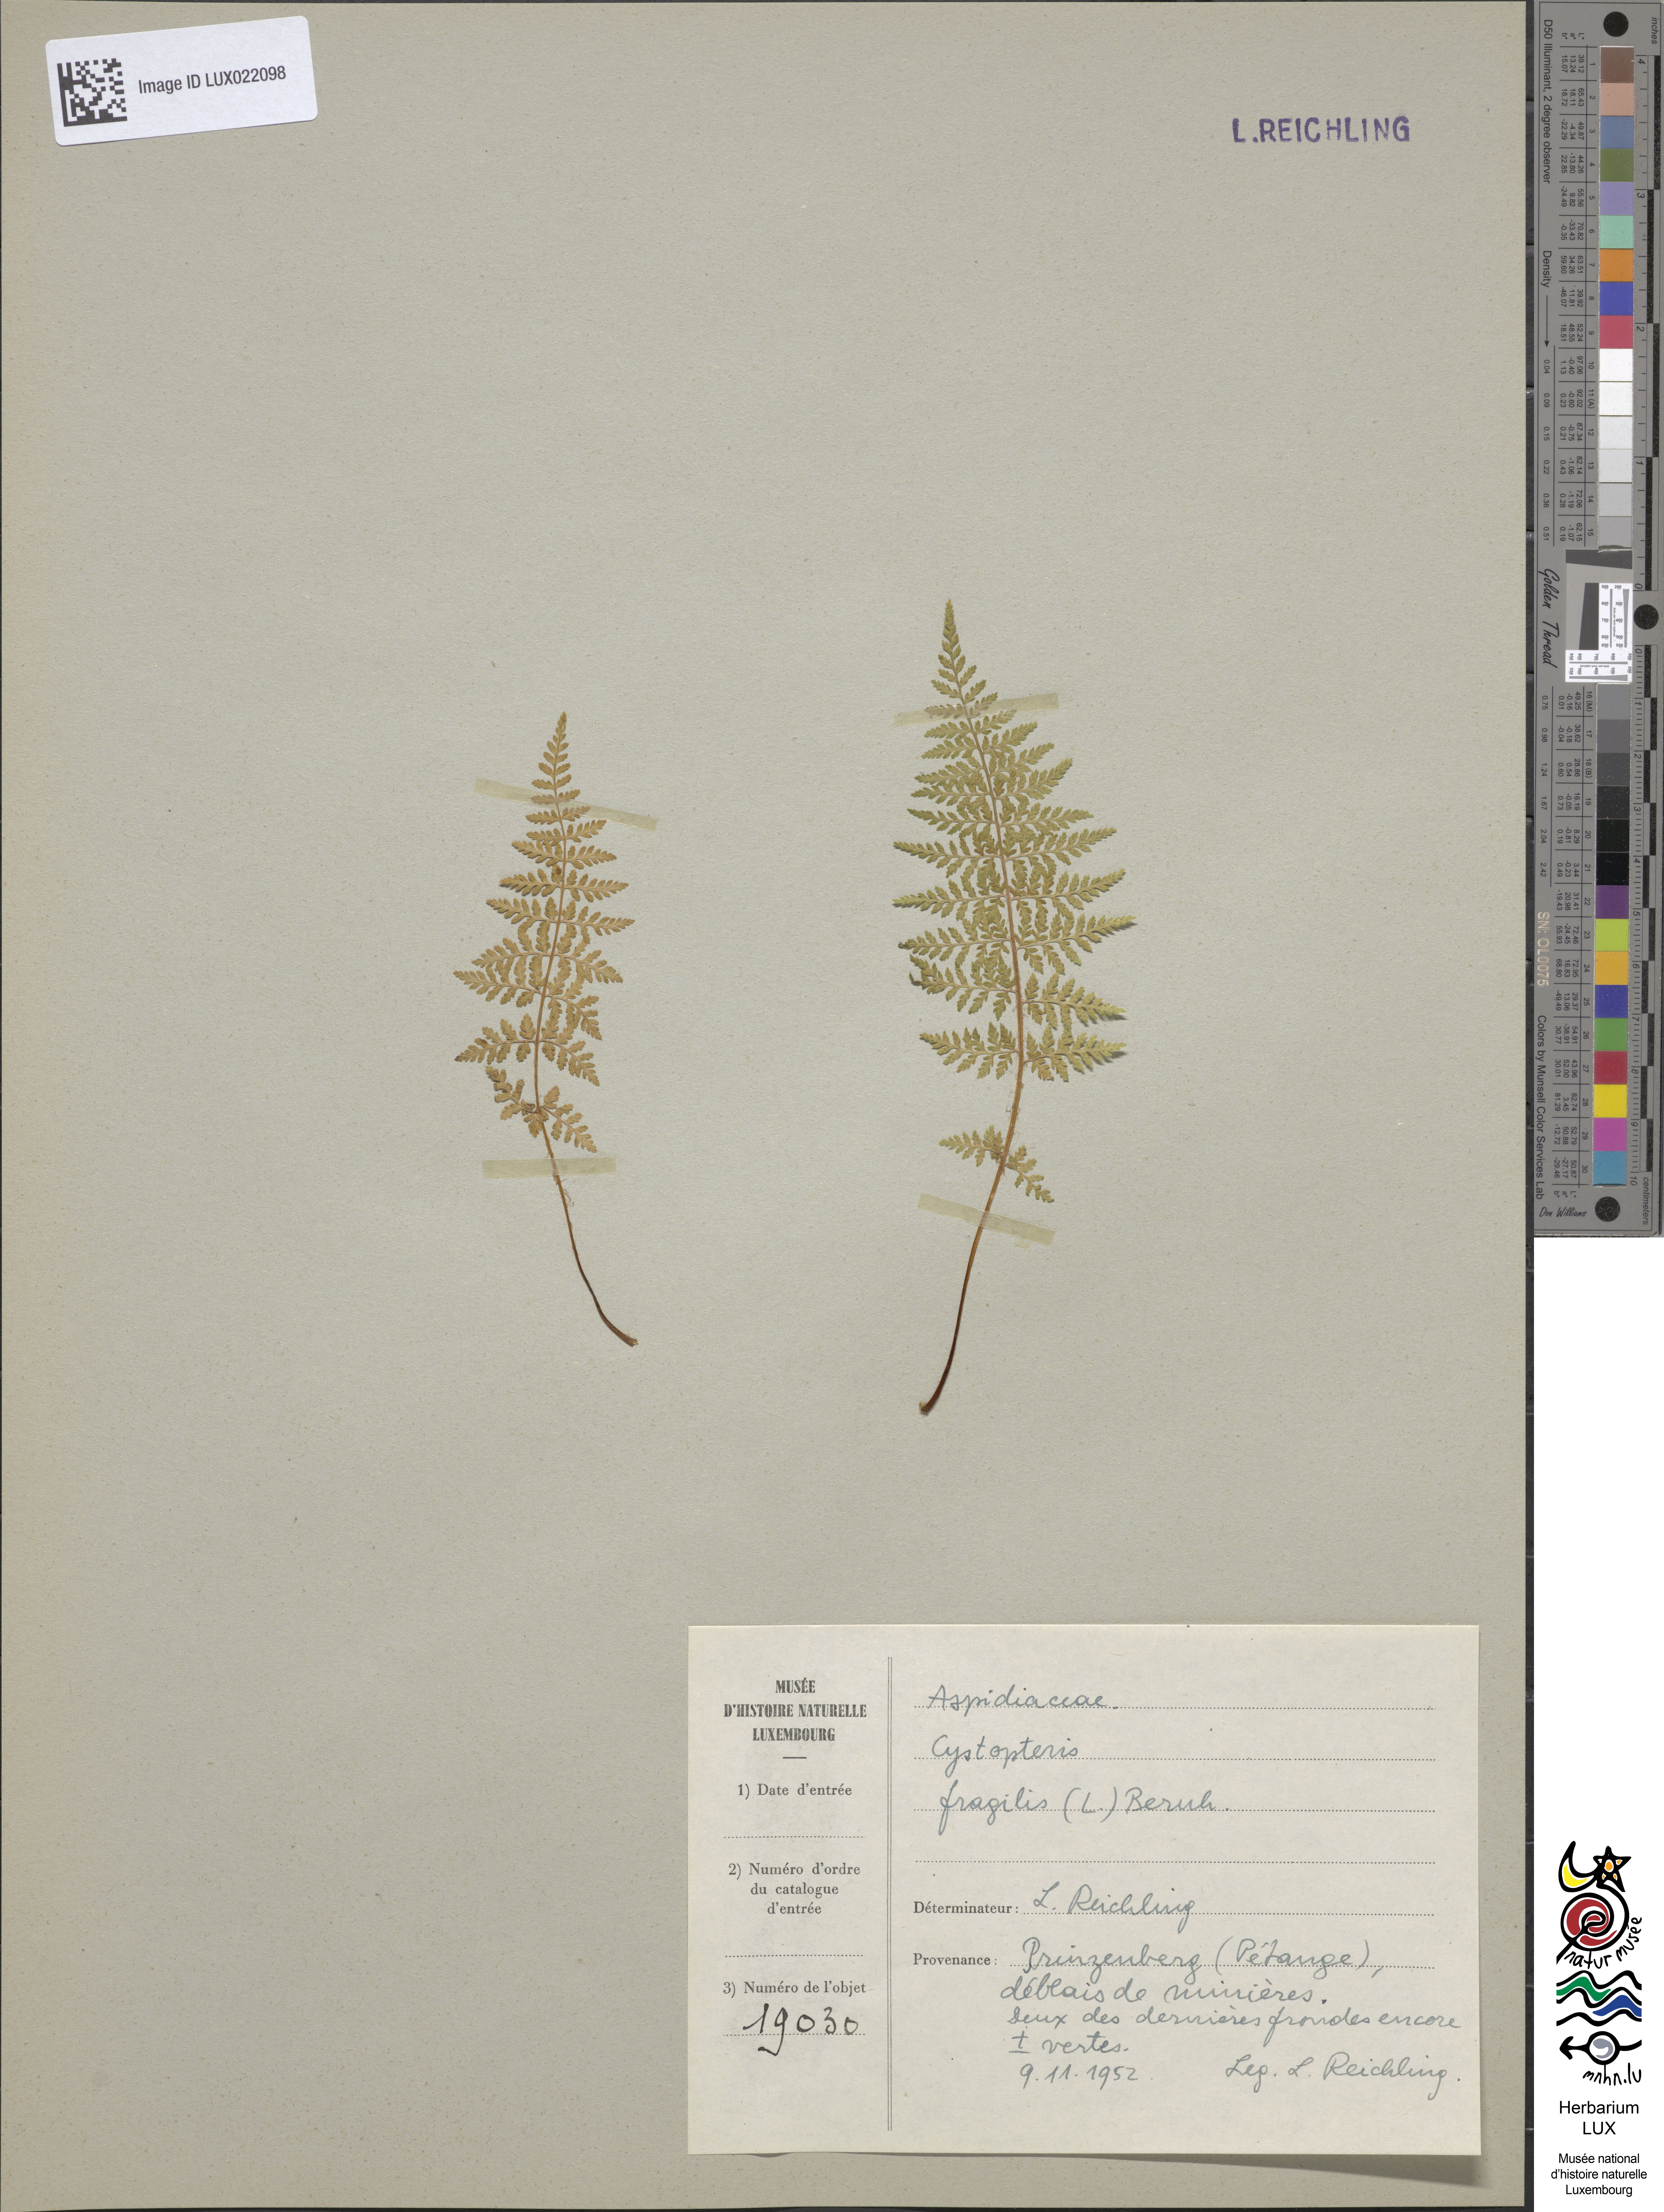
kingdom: Plantae
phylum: Tracheophyta
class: Polypodiopsida
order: Polypodiales
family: Cystopteridaceae
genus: Cystopteris
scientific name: Cystopteris fragilis
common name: Brittle bladder fern
